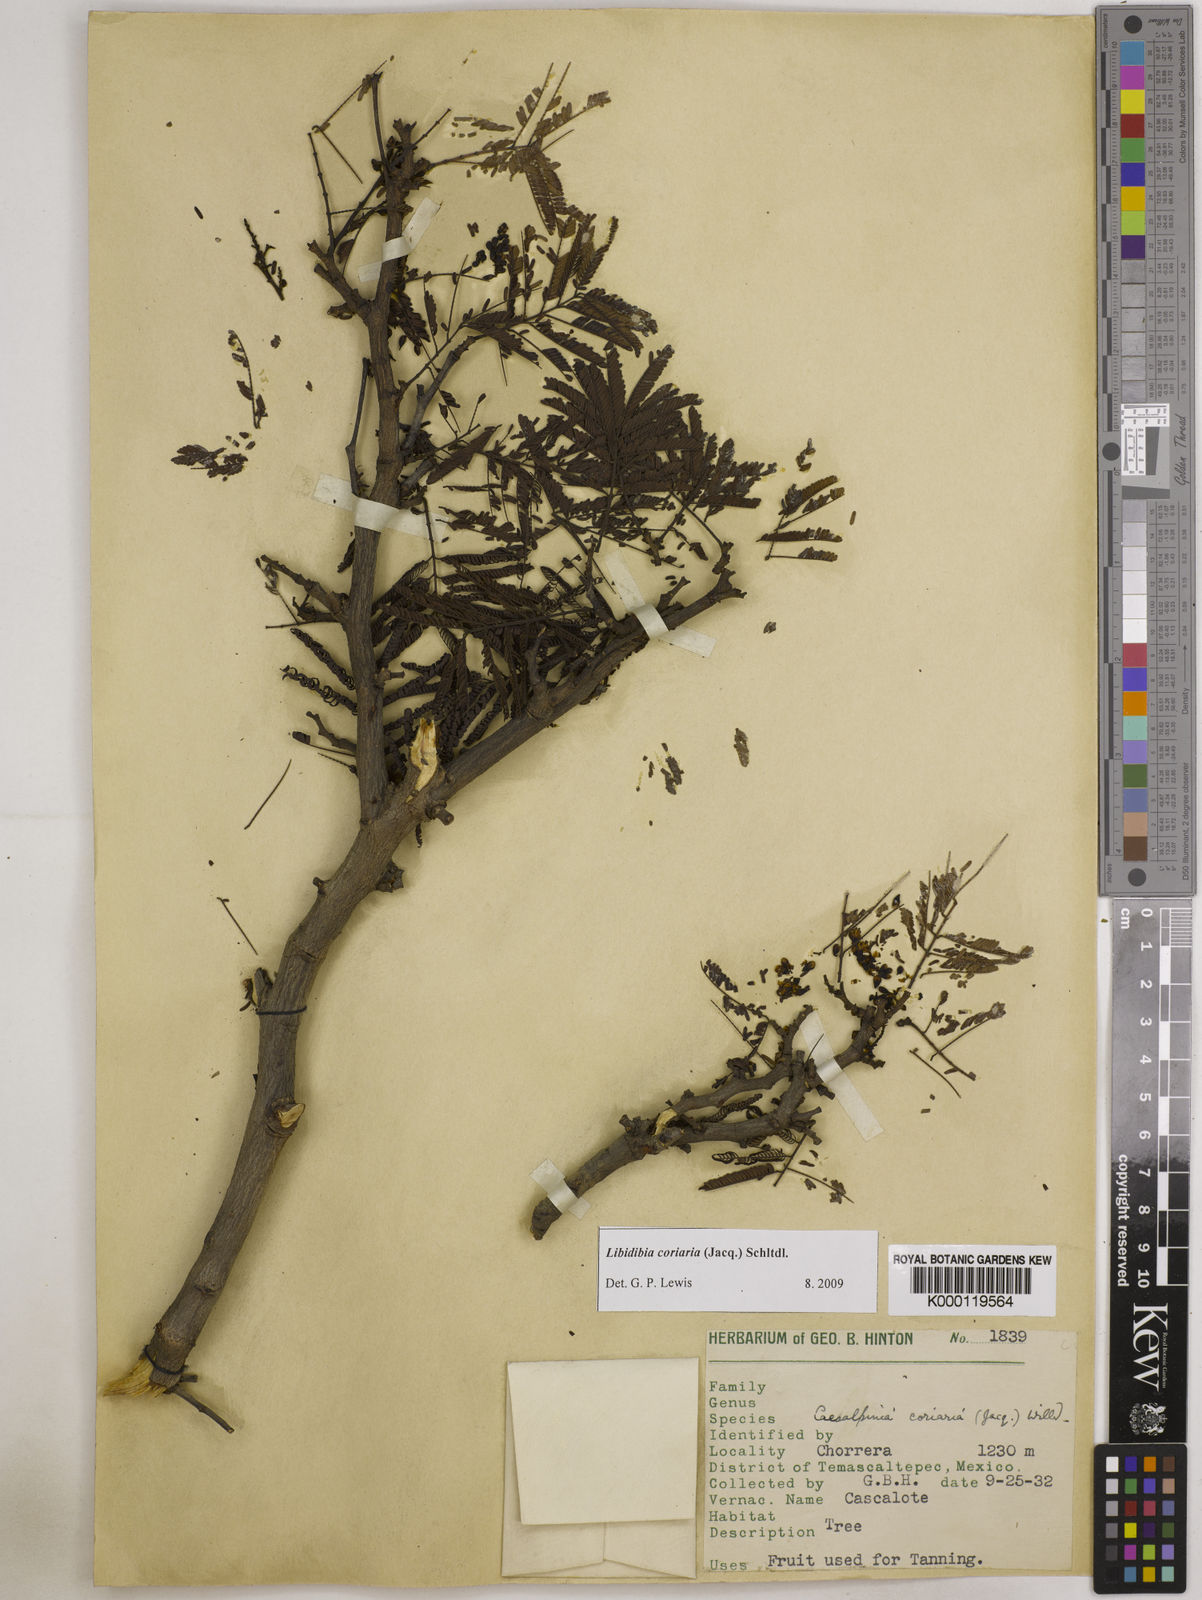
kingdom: Plantae
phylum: Tracheophyta
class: Magnoliopsida
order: Fabales
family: Fabaceae
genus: Libidibia
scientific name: Libidibia coriaria
